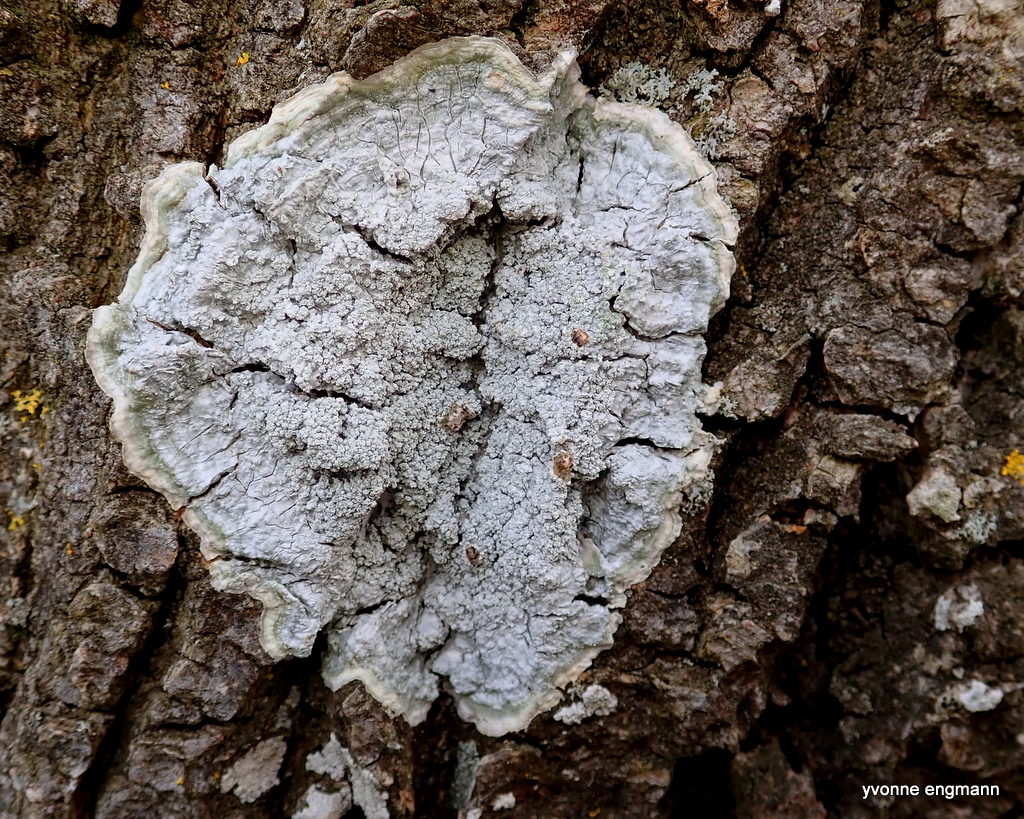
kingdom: Fungi
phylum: Ascomycota
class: Lecanoromycetes
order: Lecanorales
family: Haematommataceae
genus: Haematomma
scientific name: Haematomma ochroleucum
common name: gul trådkantlav
